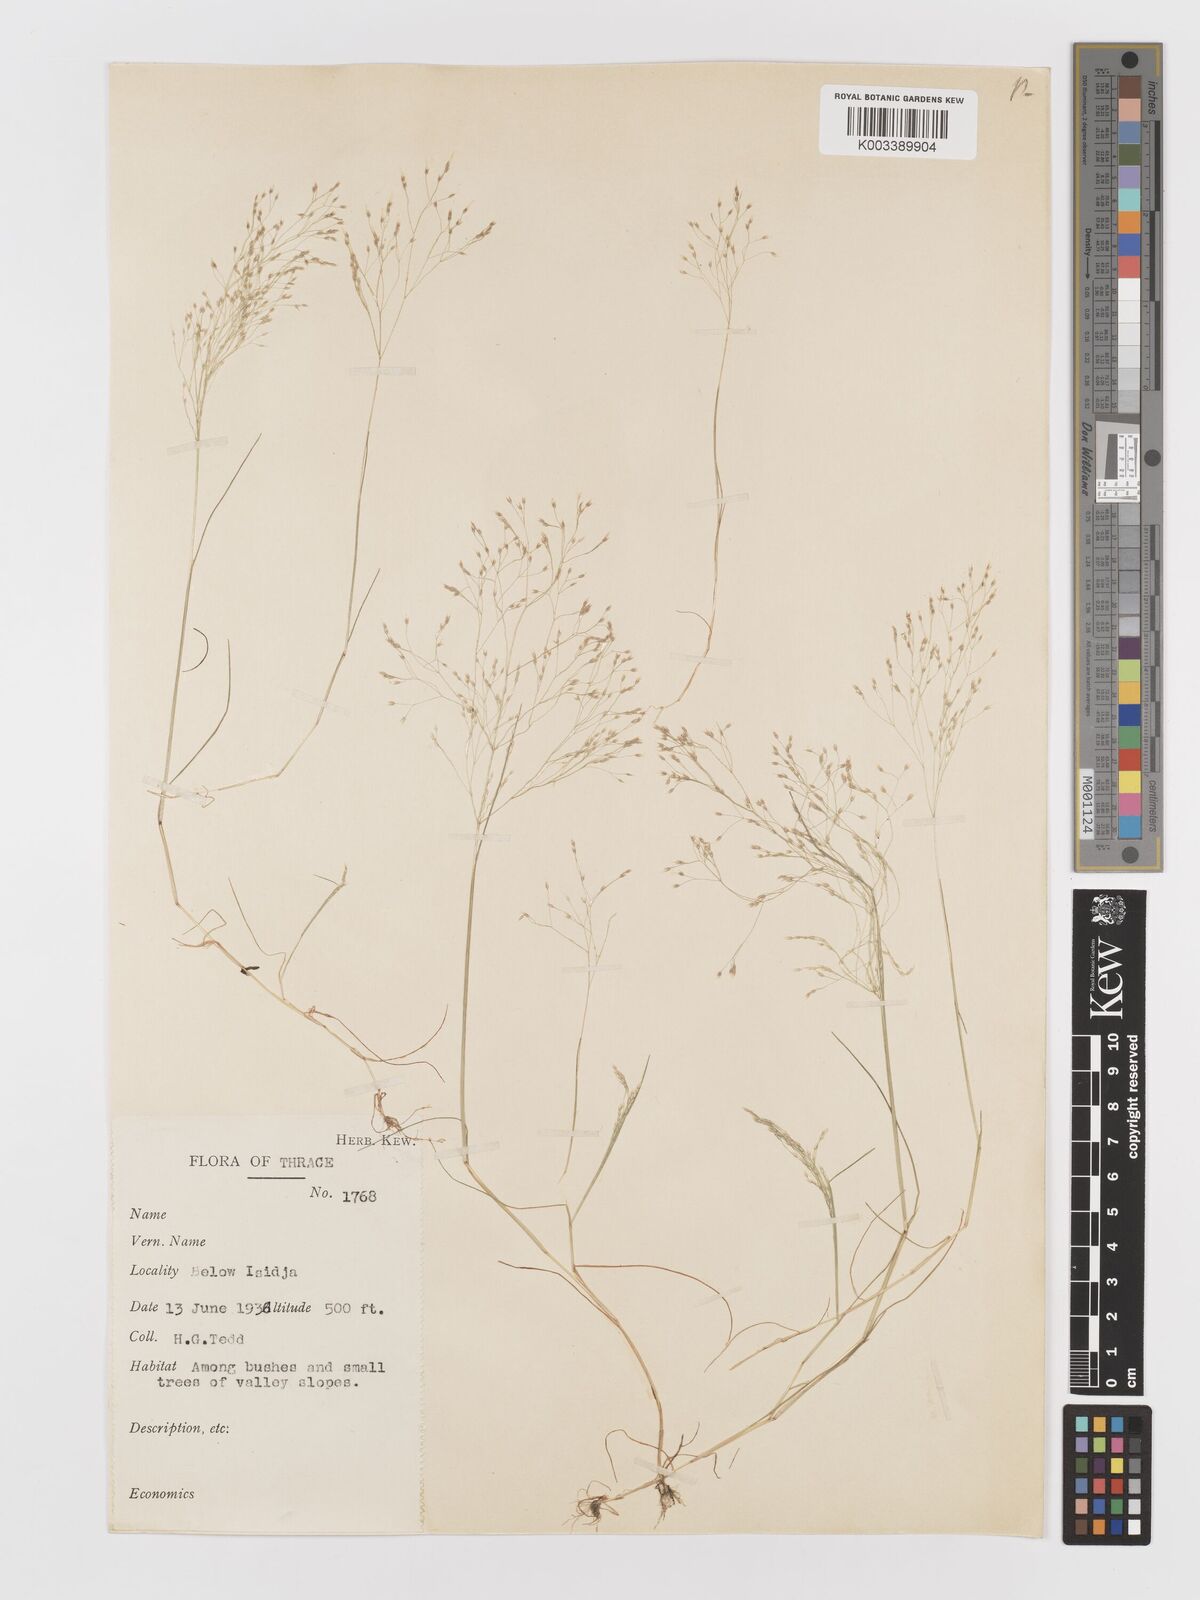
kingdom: Plantae
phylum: Tracheophyta
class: Liliopsida
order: Poales
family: Poaceae
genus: Aira
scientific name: Aira elegans
